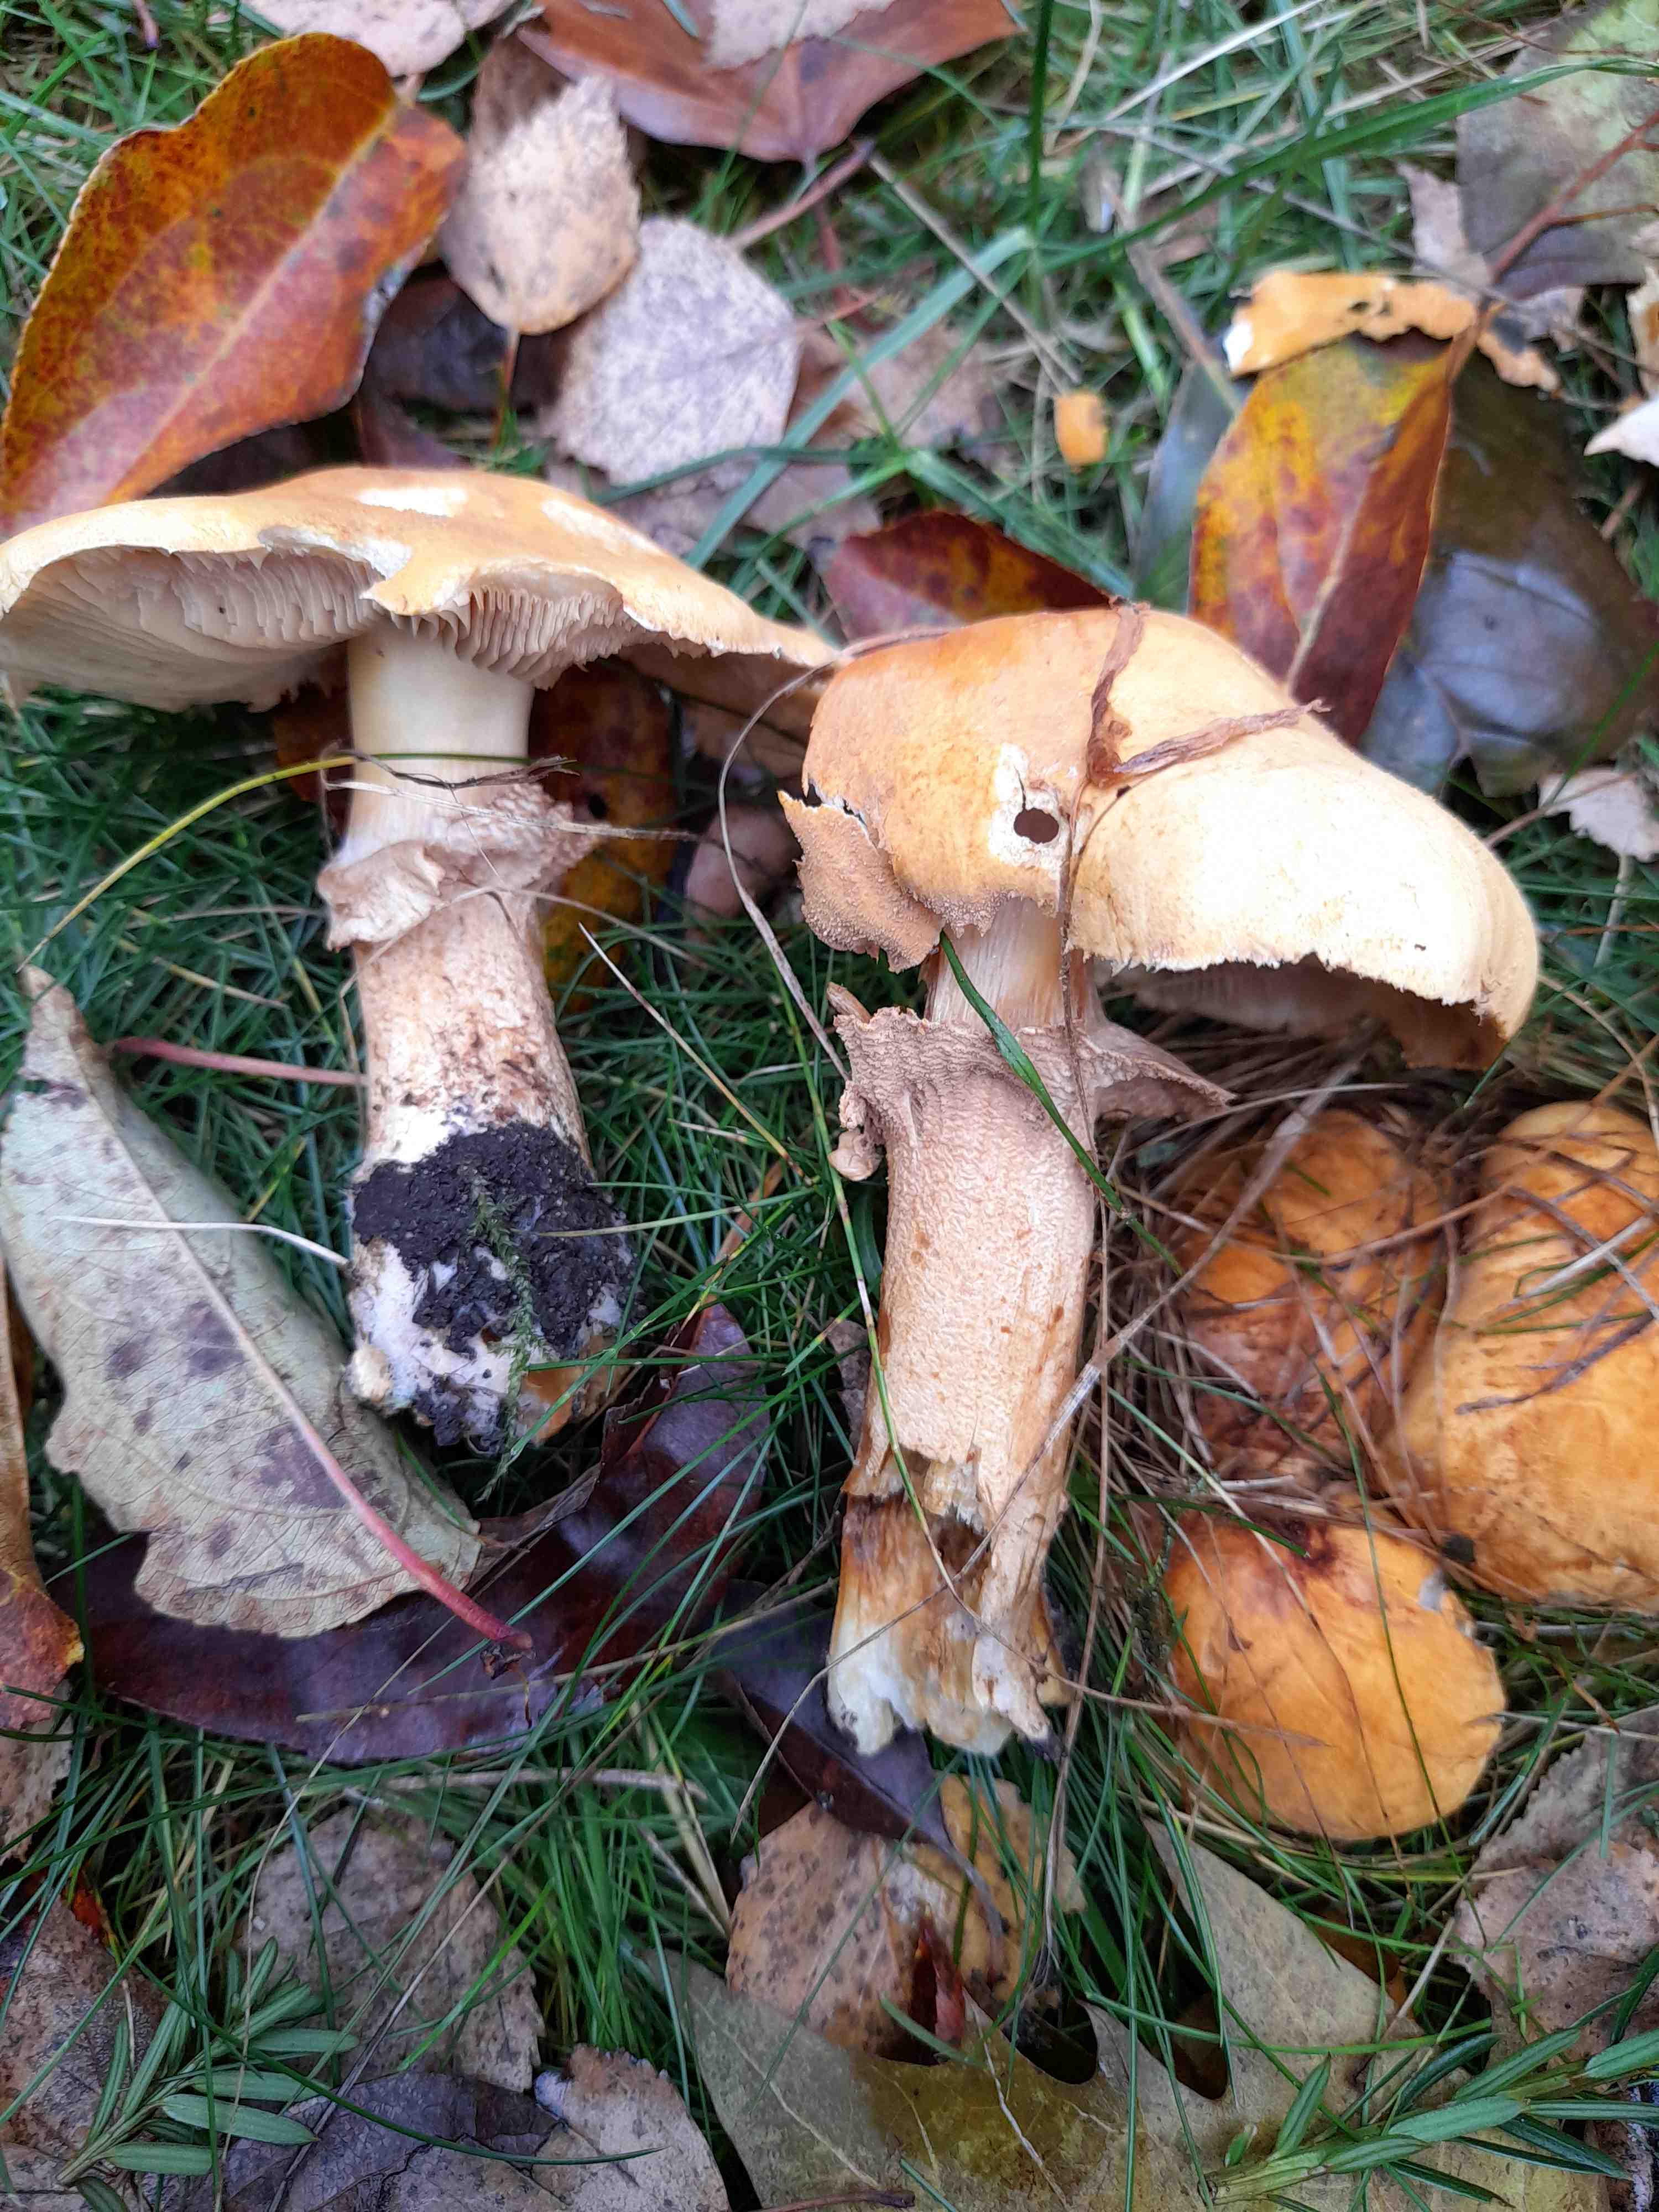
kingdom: Fungi
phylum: Basidiomycota
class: Agaricomycetes
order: Agaricales
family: Tricholomataceae
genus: Phaeolepiota
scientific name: Phaeolepiota aurea
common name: gyldenhat
